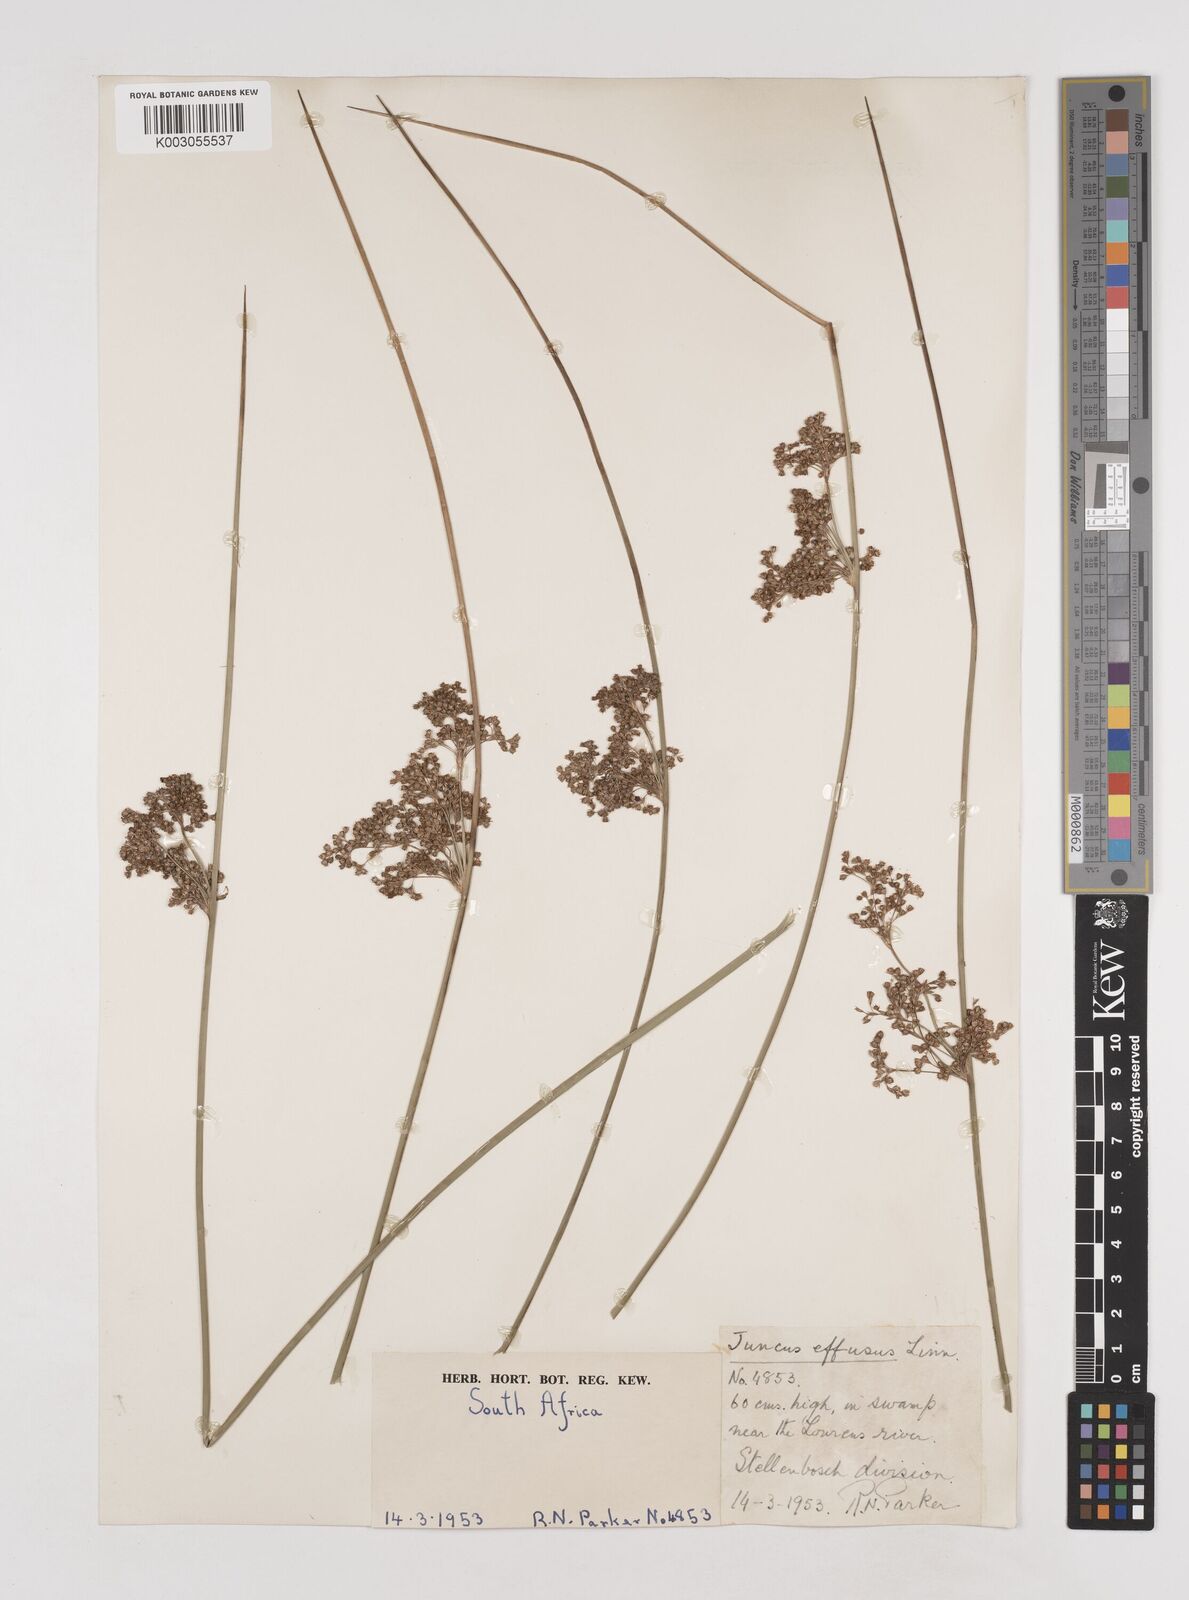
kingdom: Plantae
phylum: Tracheophyta
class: Liliopsida
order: Poales
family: Juncaceae
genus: Juncus
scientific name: Juncus effusus
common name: Soft rush
